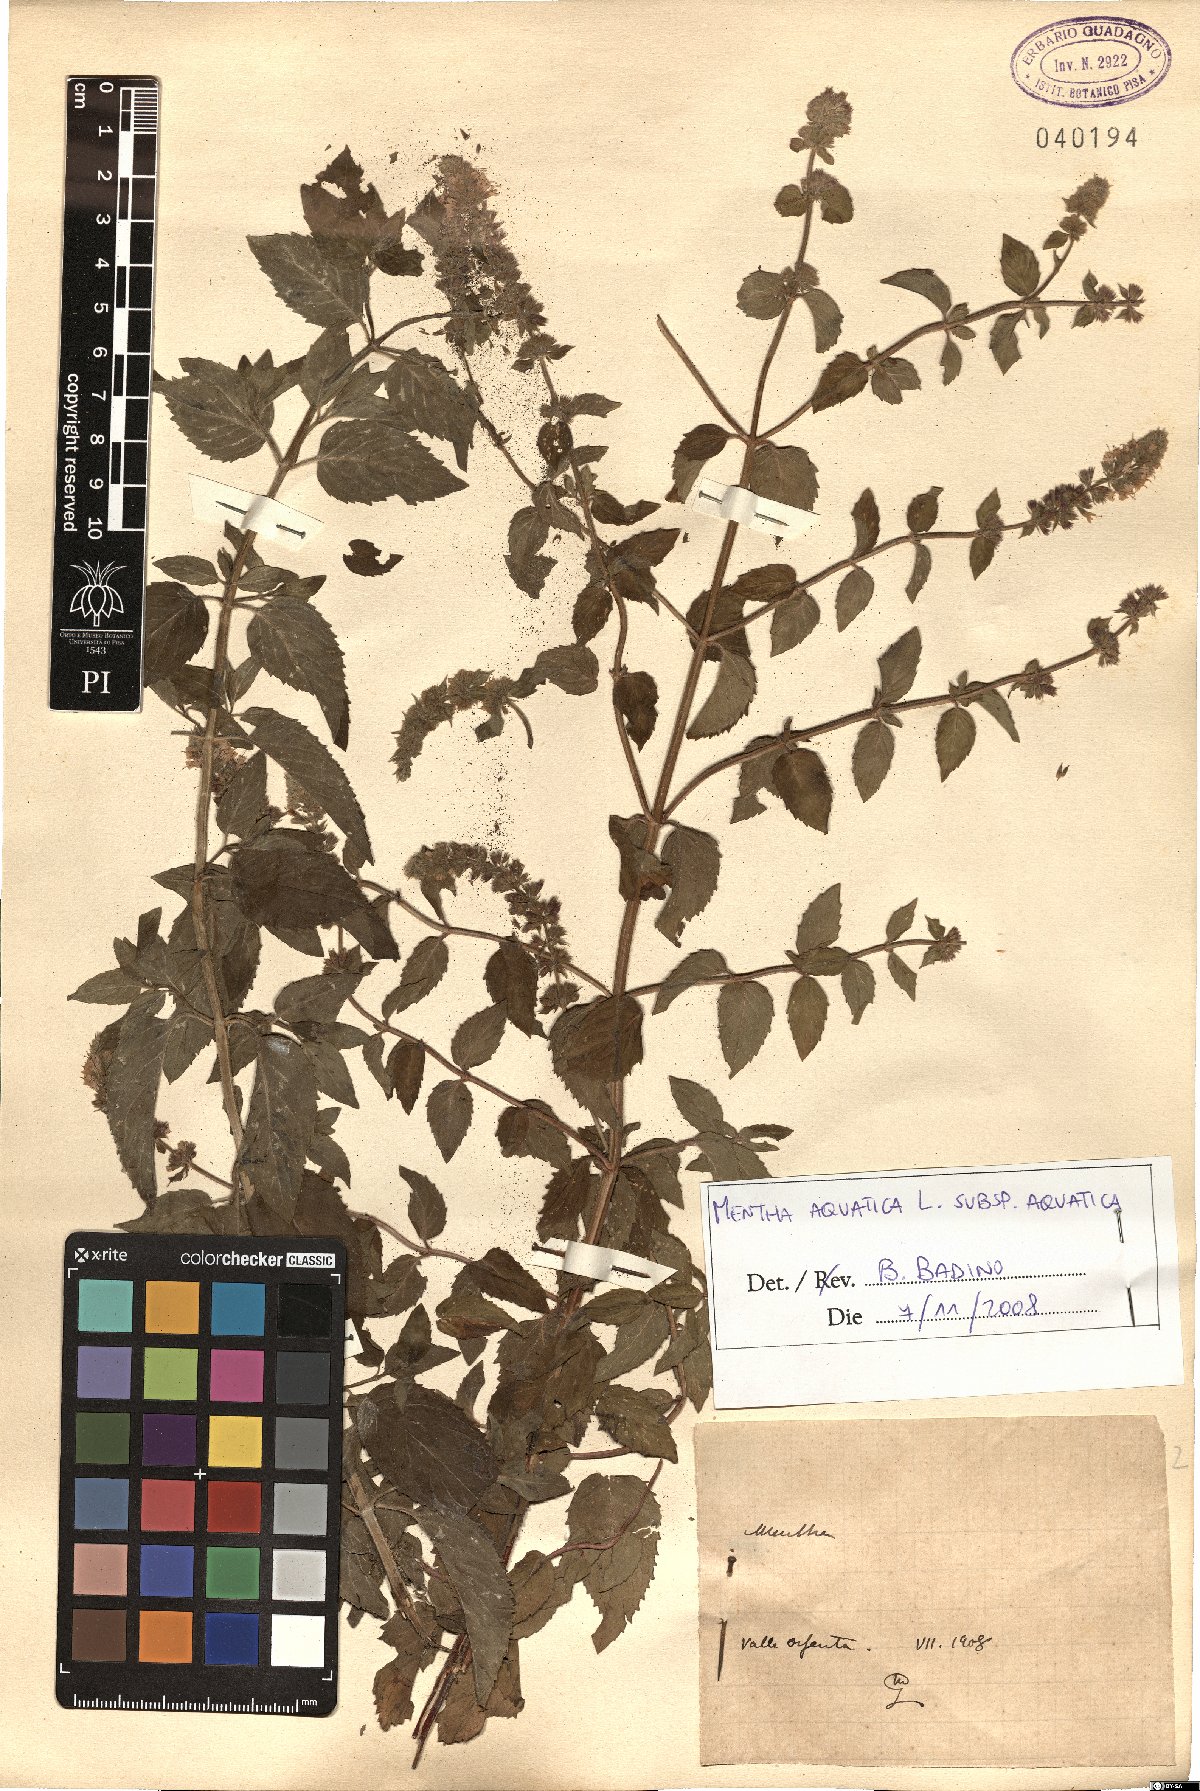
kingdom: Plantae
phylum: Tracheophyta
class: Magnoliopsida
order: Lamiales
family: Lamiaceae
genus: Mentha
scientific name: Mentha aquatica
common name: Water mint
